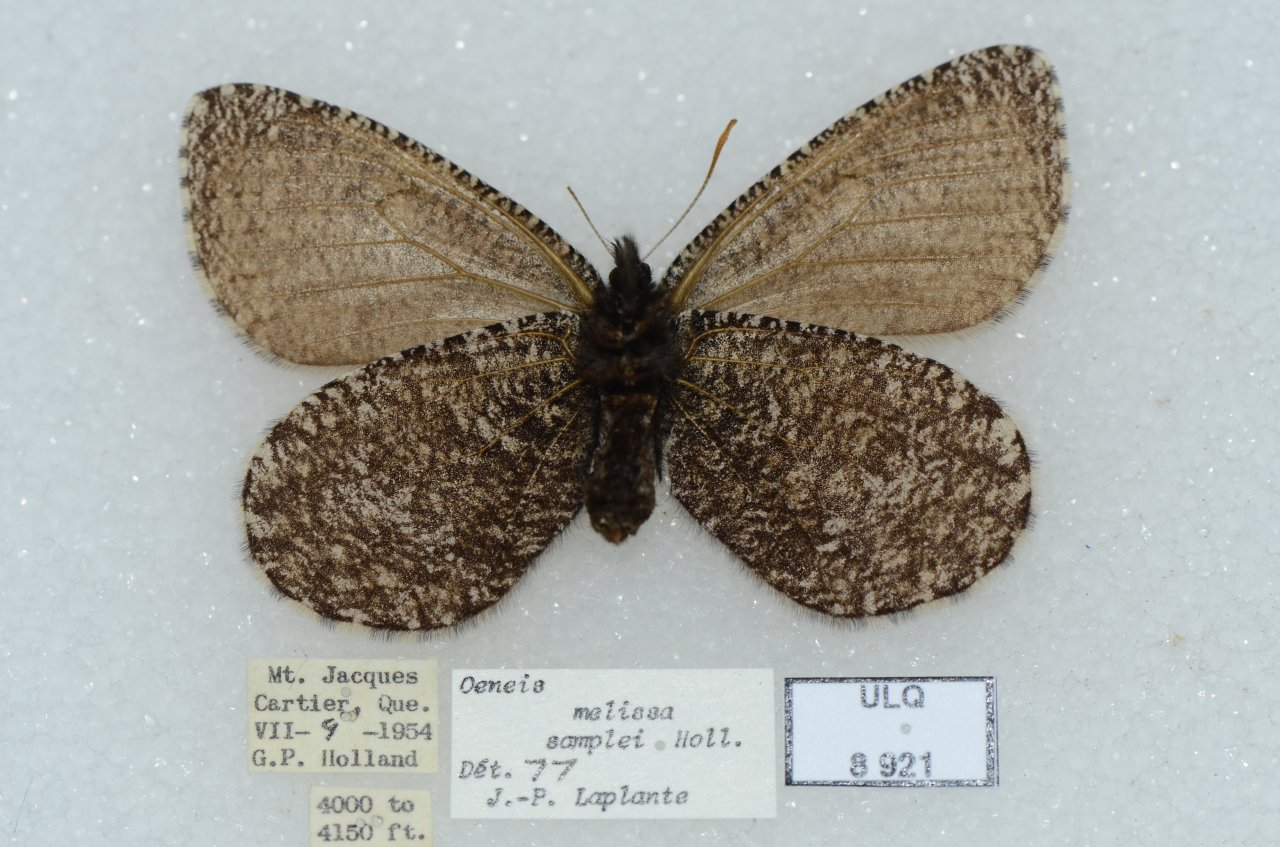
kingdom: Animalia
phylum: Arthropoda
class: Insecta
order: Lepidoptera
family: Nymphalidae
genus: Oeneis
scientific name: Oeneis melissa
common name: Melissa Arctic
